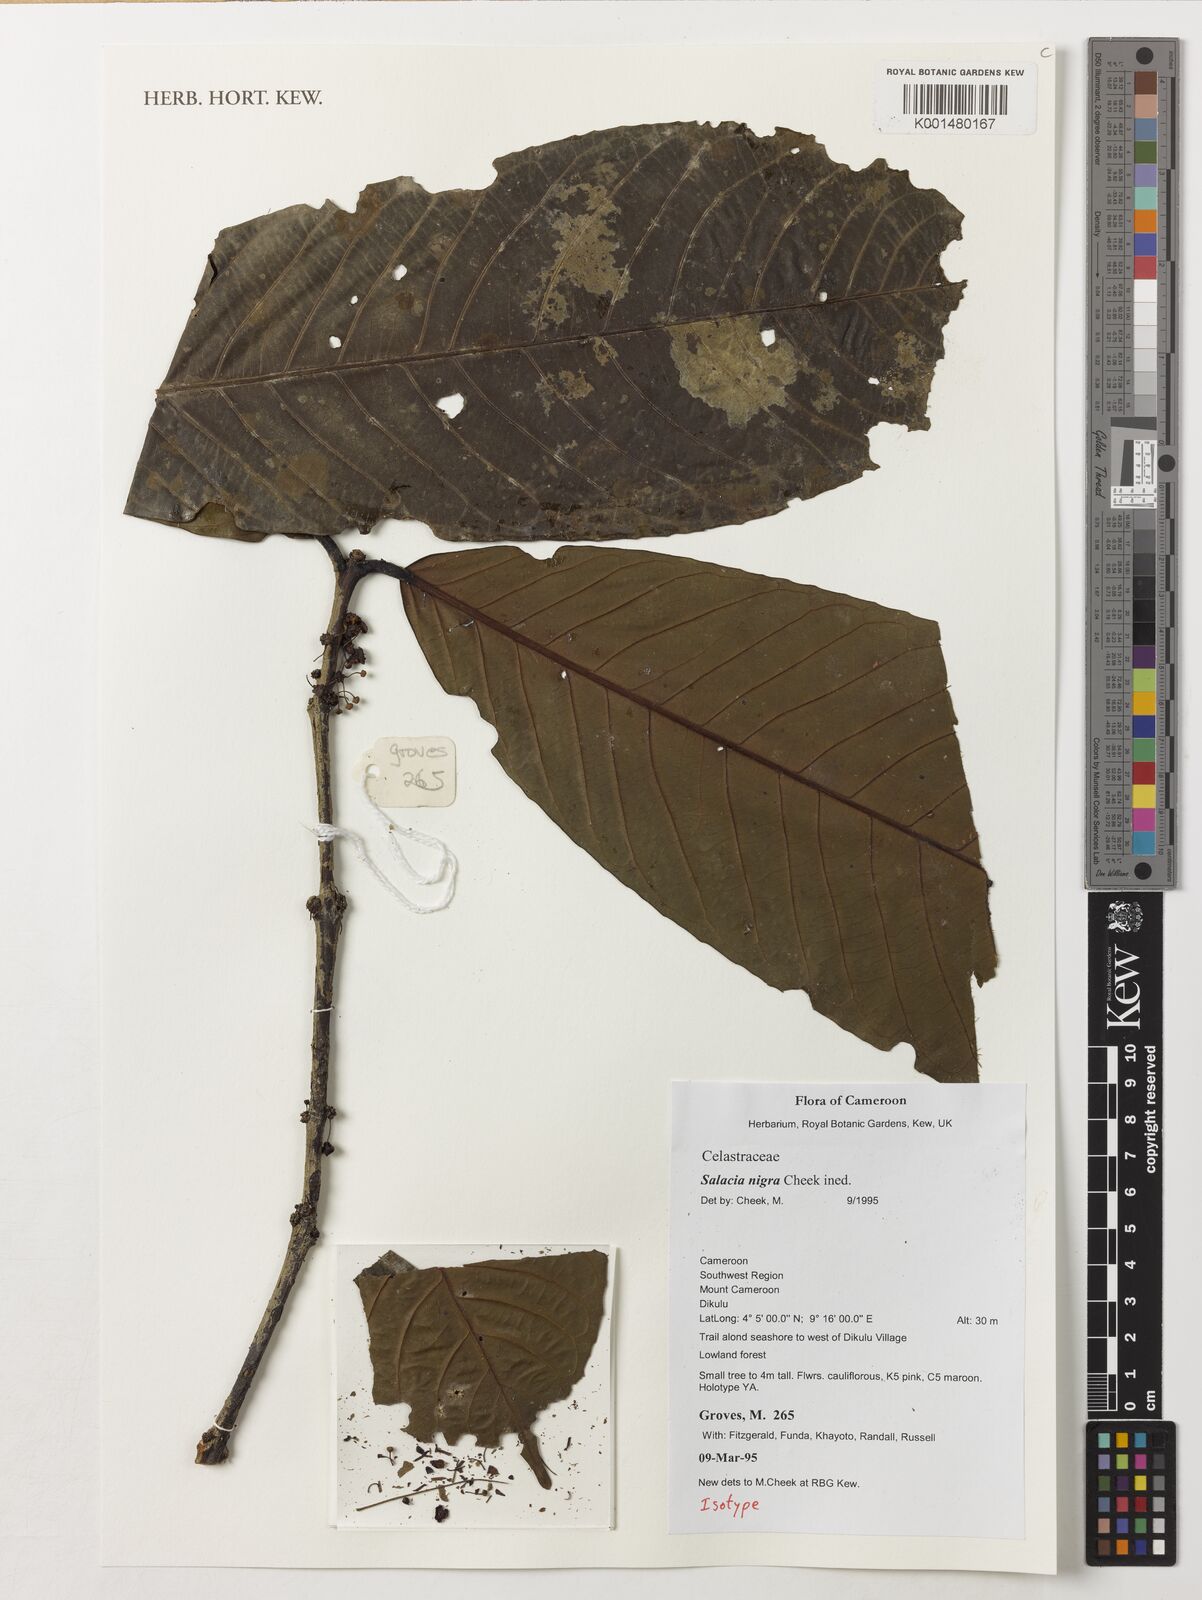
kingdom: Plantae
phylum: Tracheophyta
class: Magnoliopsida
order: Celastrales
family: Celastraceae
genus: Salacia
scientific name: Salacia nigra
